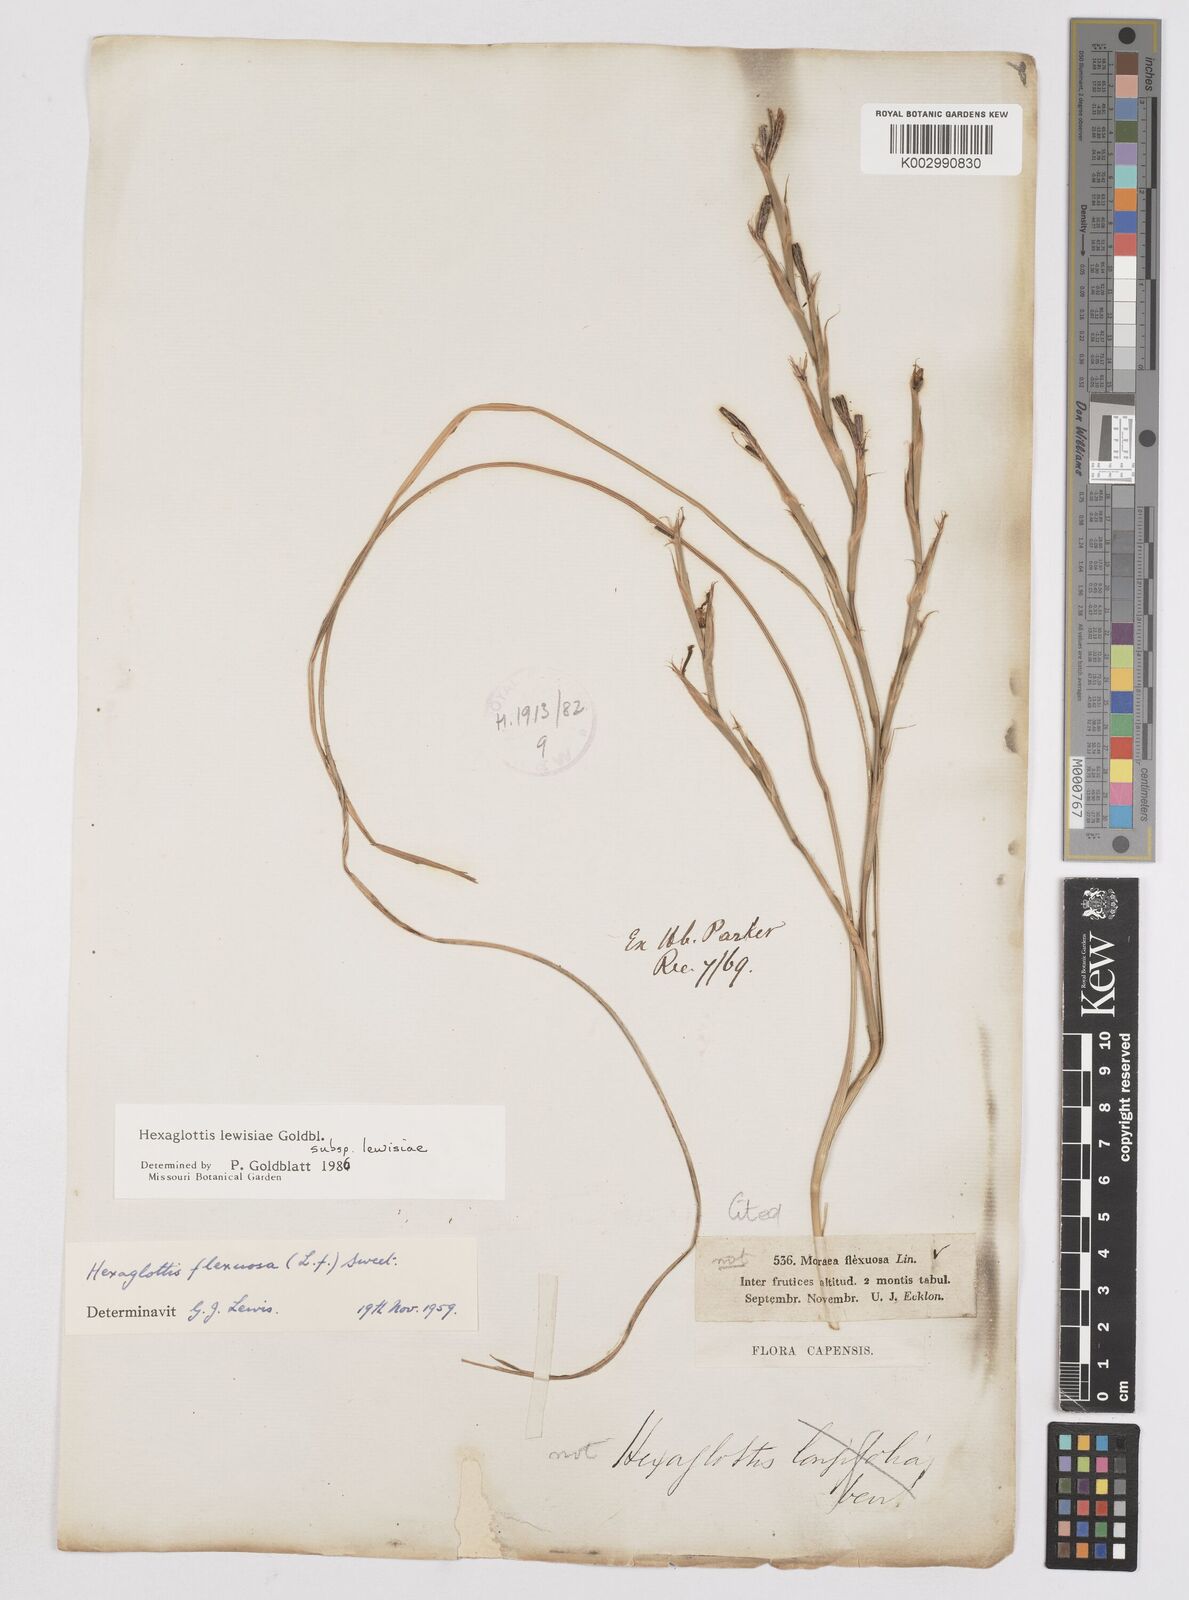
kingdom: Plantae
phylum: Tracheophyta
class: Liliopsida
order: Asparagales
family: Iridaceae
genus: Moraea
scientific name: Moraea lewisiae
